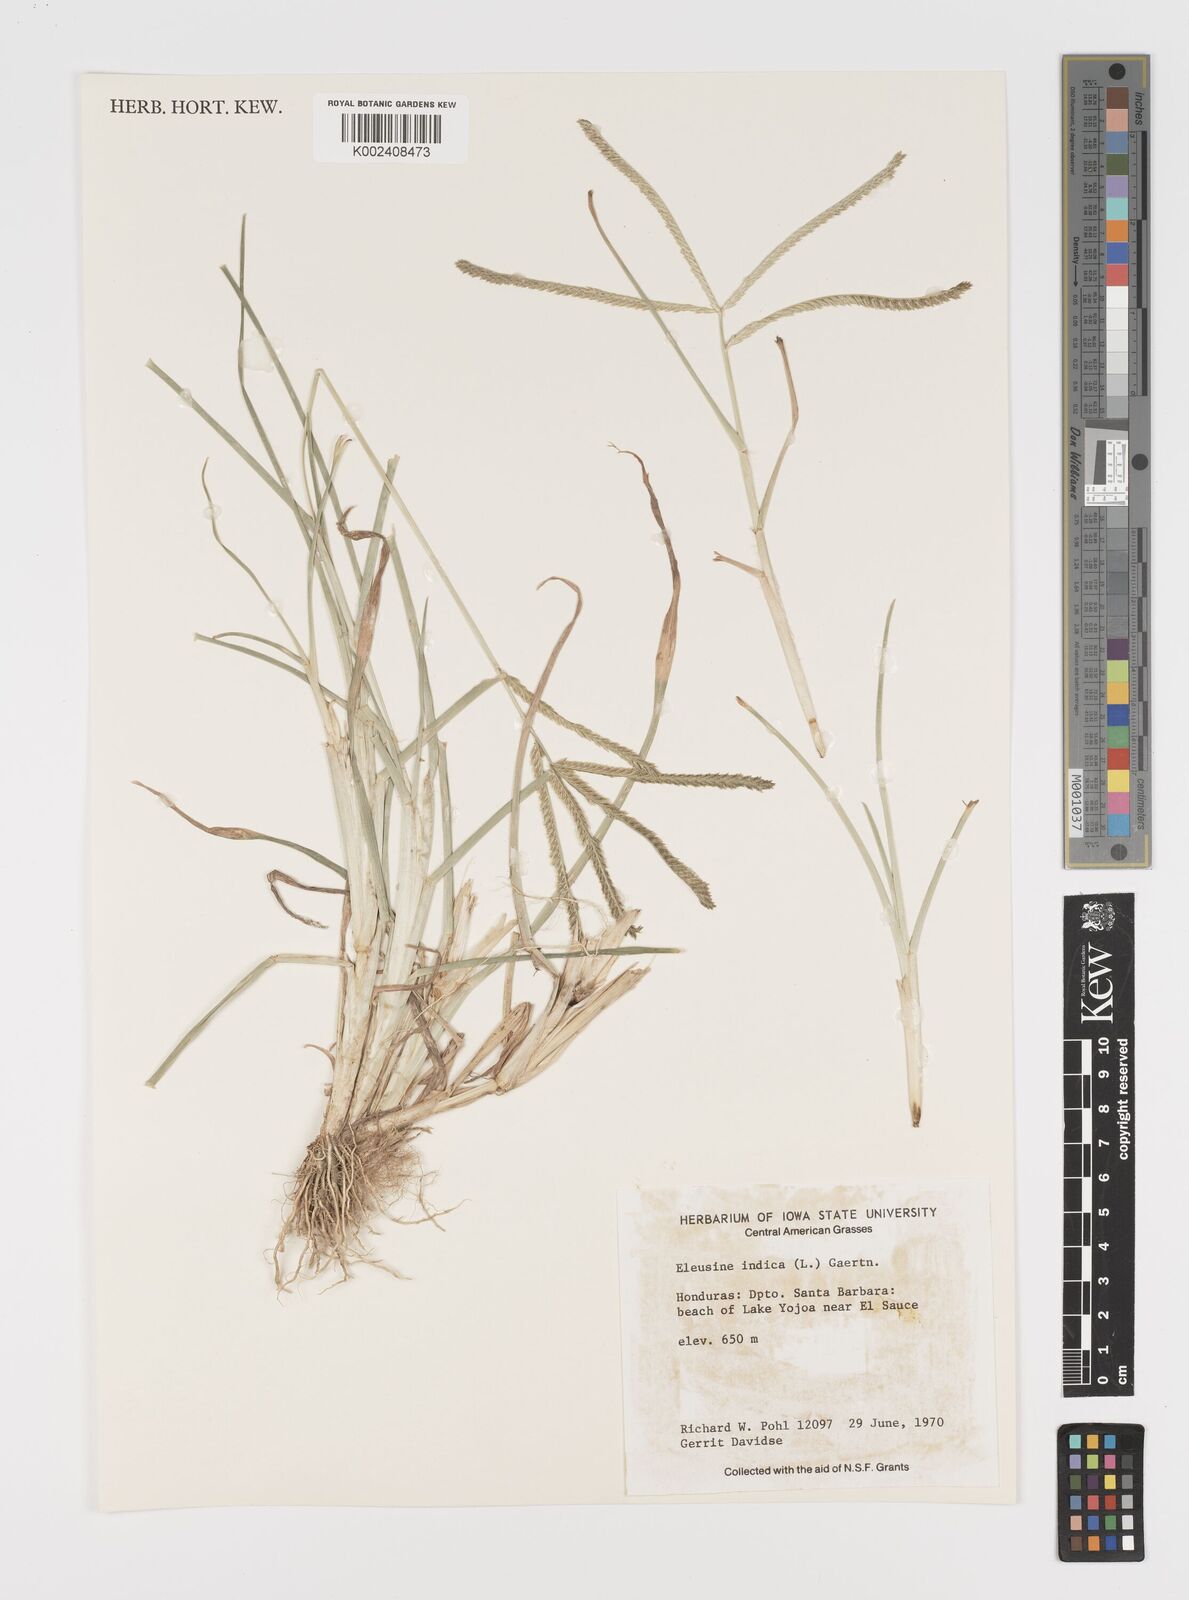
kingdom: Plantae
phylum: Tracheophyta
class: Liliopsida
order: Poales
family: Poaceae
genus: Eleusine
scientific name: Eleusine indica
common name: Yard-grass
